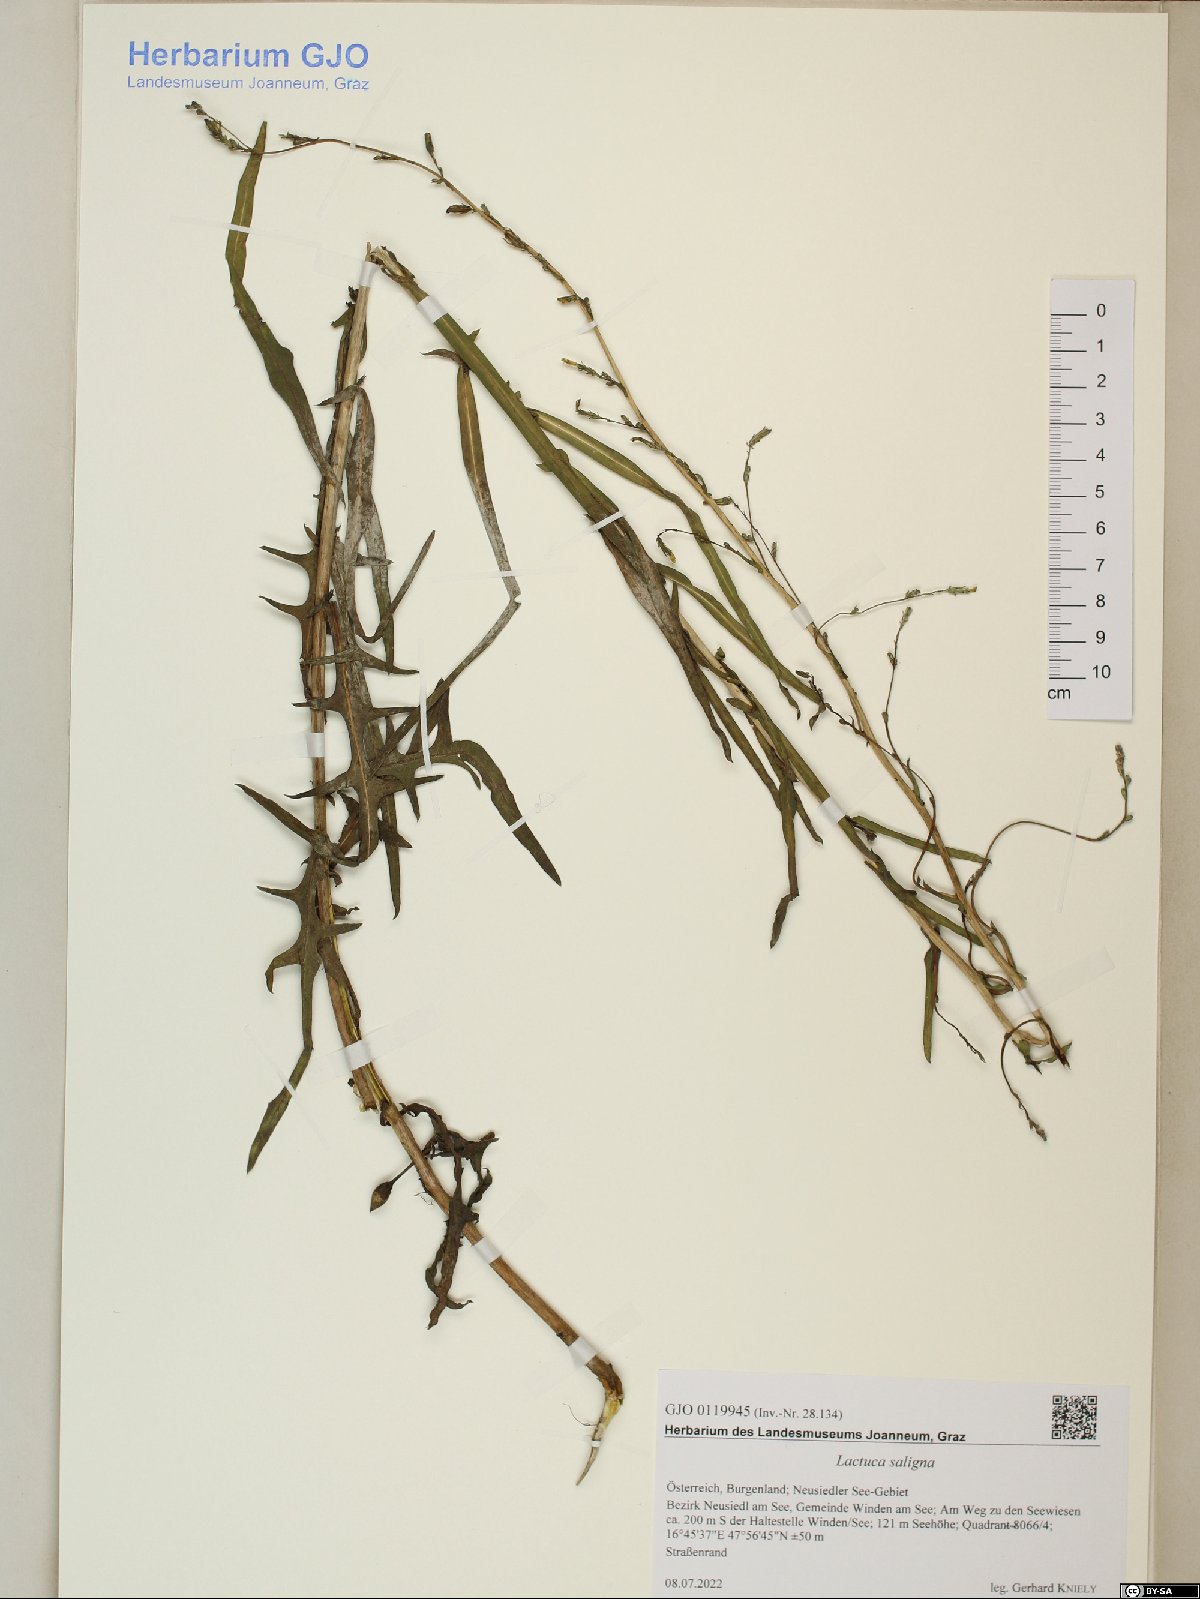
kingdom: Plantae
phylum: Tracheophyta
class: Magnoliopsida
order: Asterales
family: Asteraceae
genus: Lactuca
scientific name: Lactuca saligna
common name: Wild lettuce
